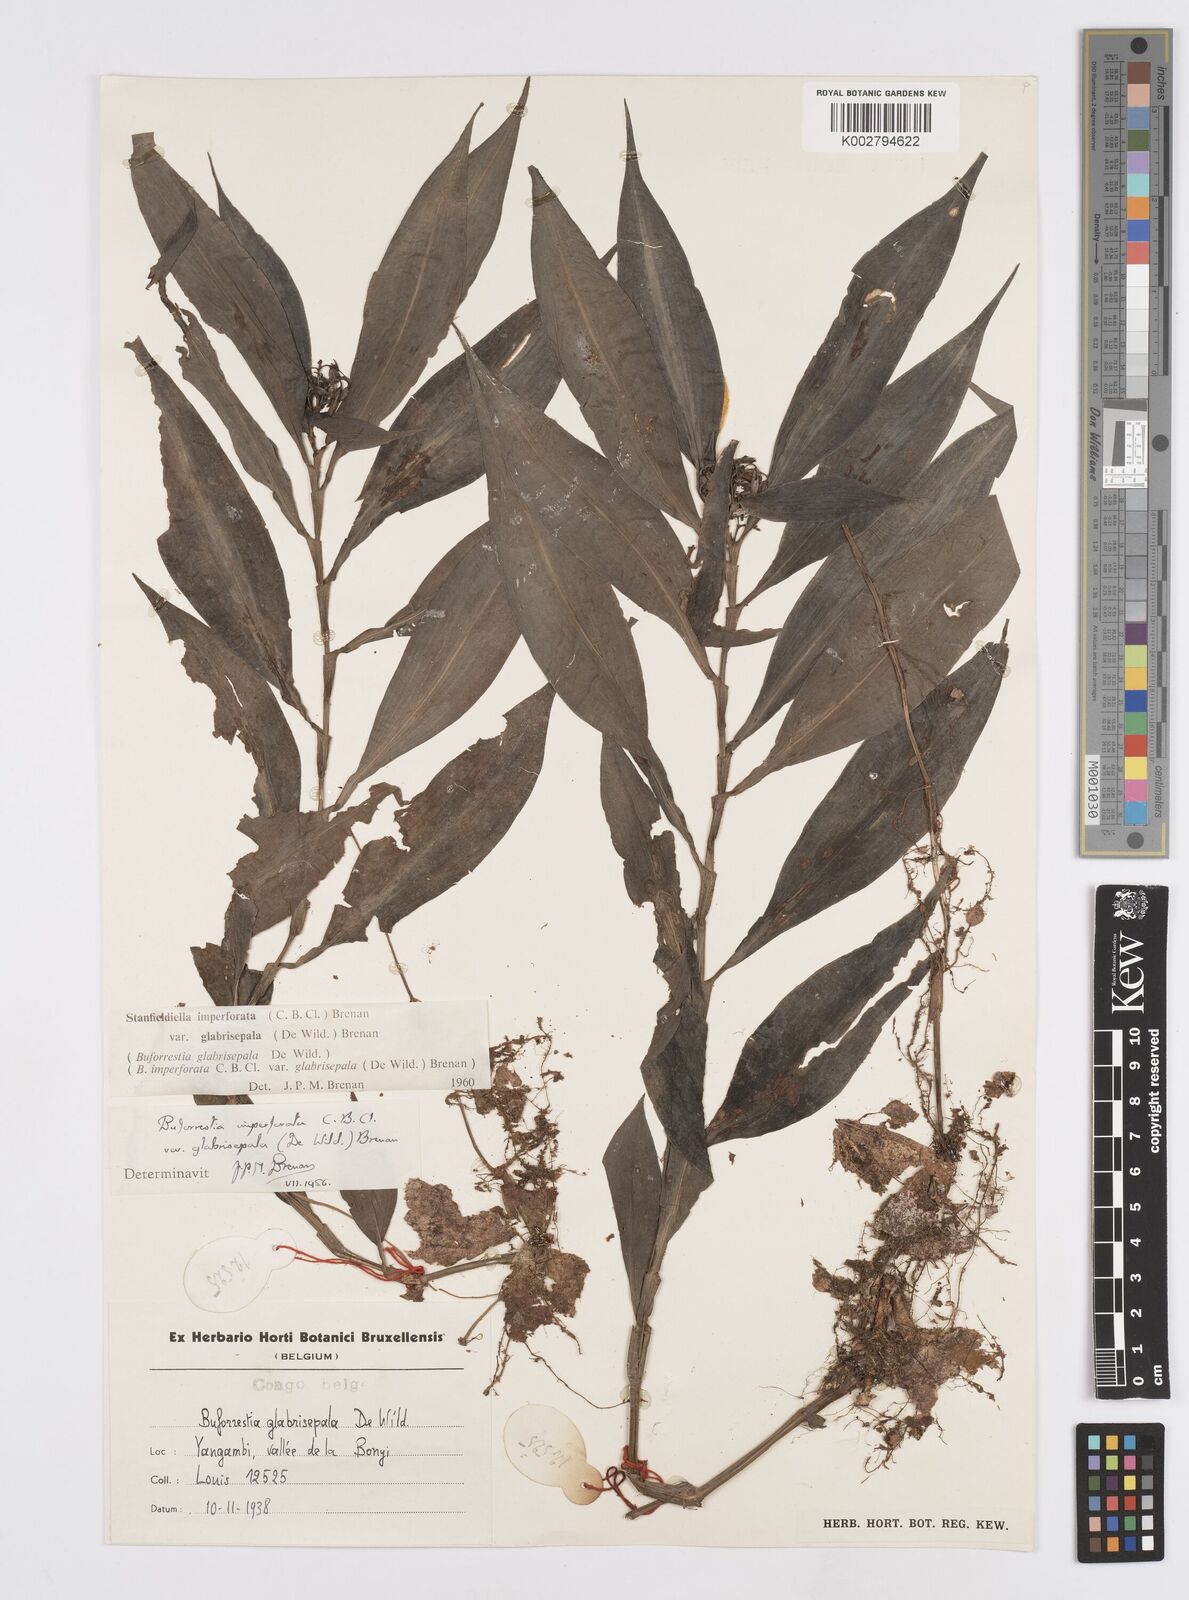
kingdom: Plantae
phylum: Tracheophyta
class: Liliopsida
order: Commelinales
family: Commelinaceae
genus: Stanfieldiella
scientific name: Stanfieldiella imperforata
